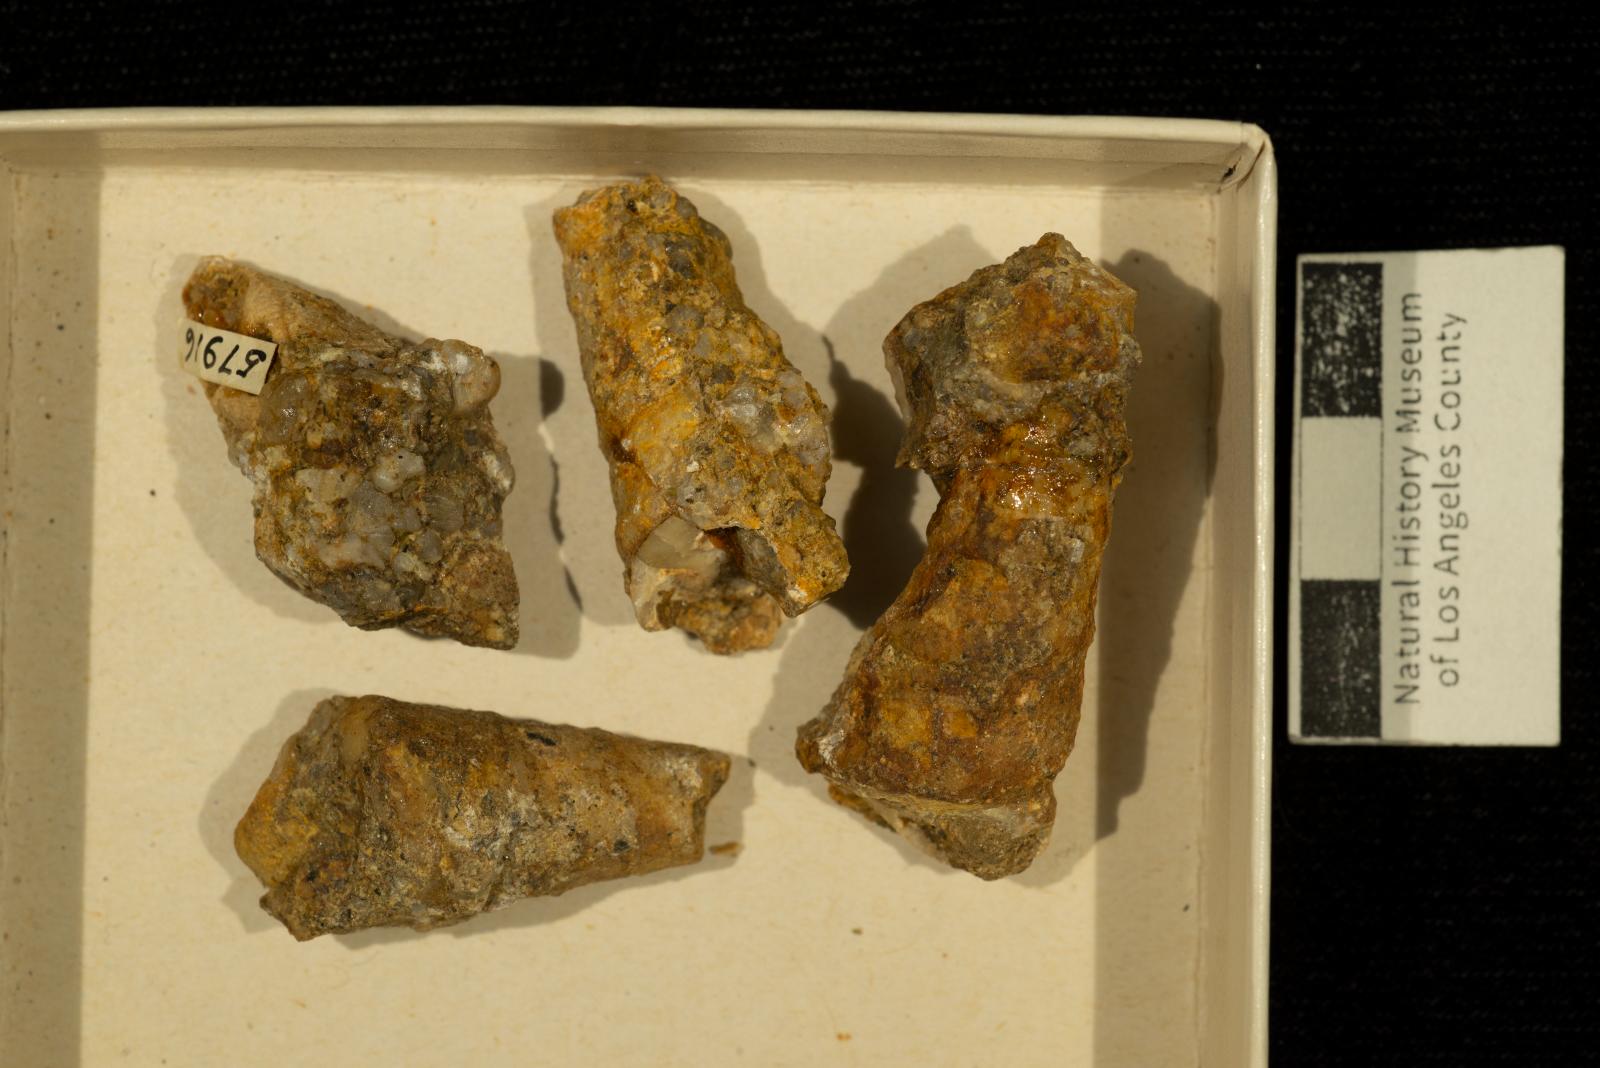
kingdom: Animalia
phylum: Mollusca
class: Gastropoda
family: Turritellidae
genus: Turritella
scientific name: Turritella peninsularis
